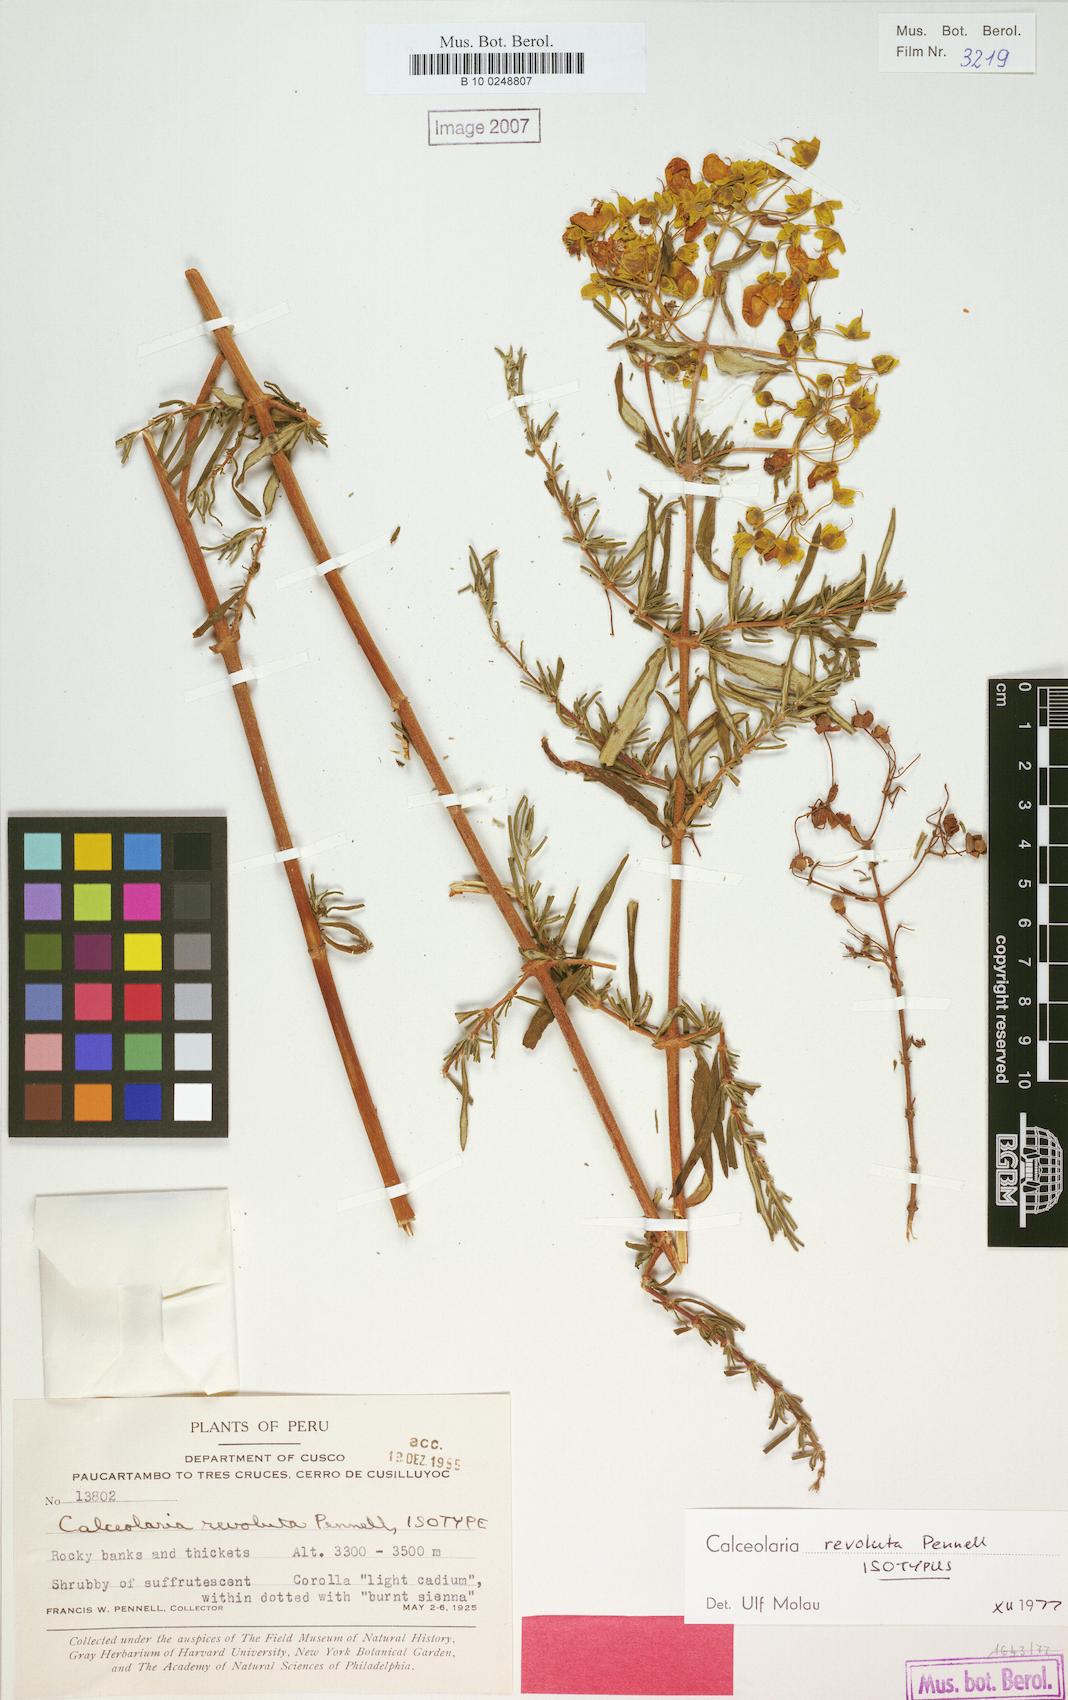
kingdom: Plantae
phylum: Tracheophyta
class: Magnoliopsida
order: Lamiales
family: Calceolariaceae
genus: Calceolaria
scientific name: Calceolaria revoluta
